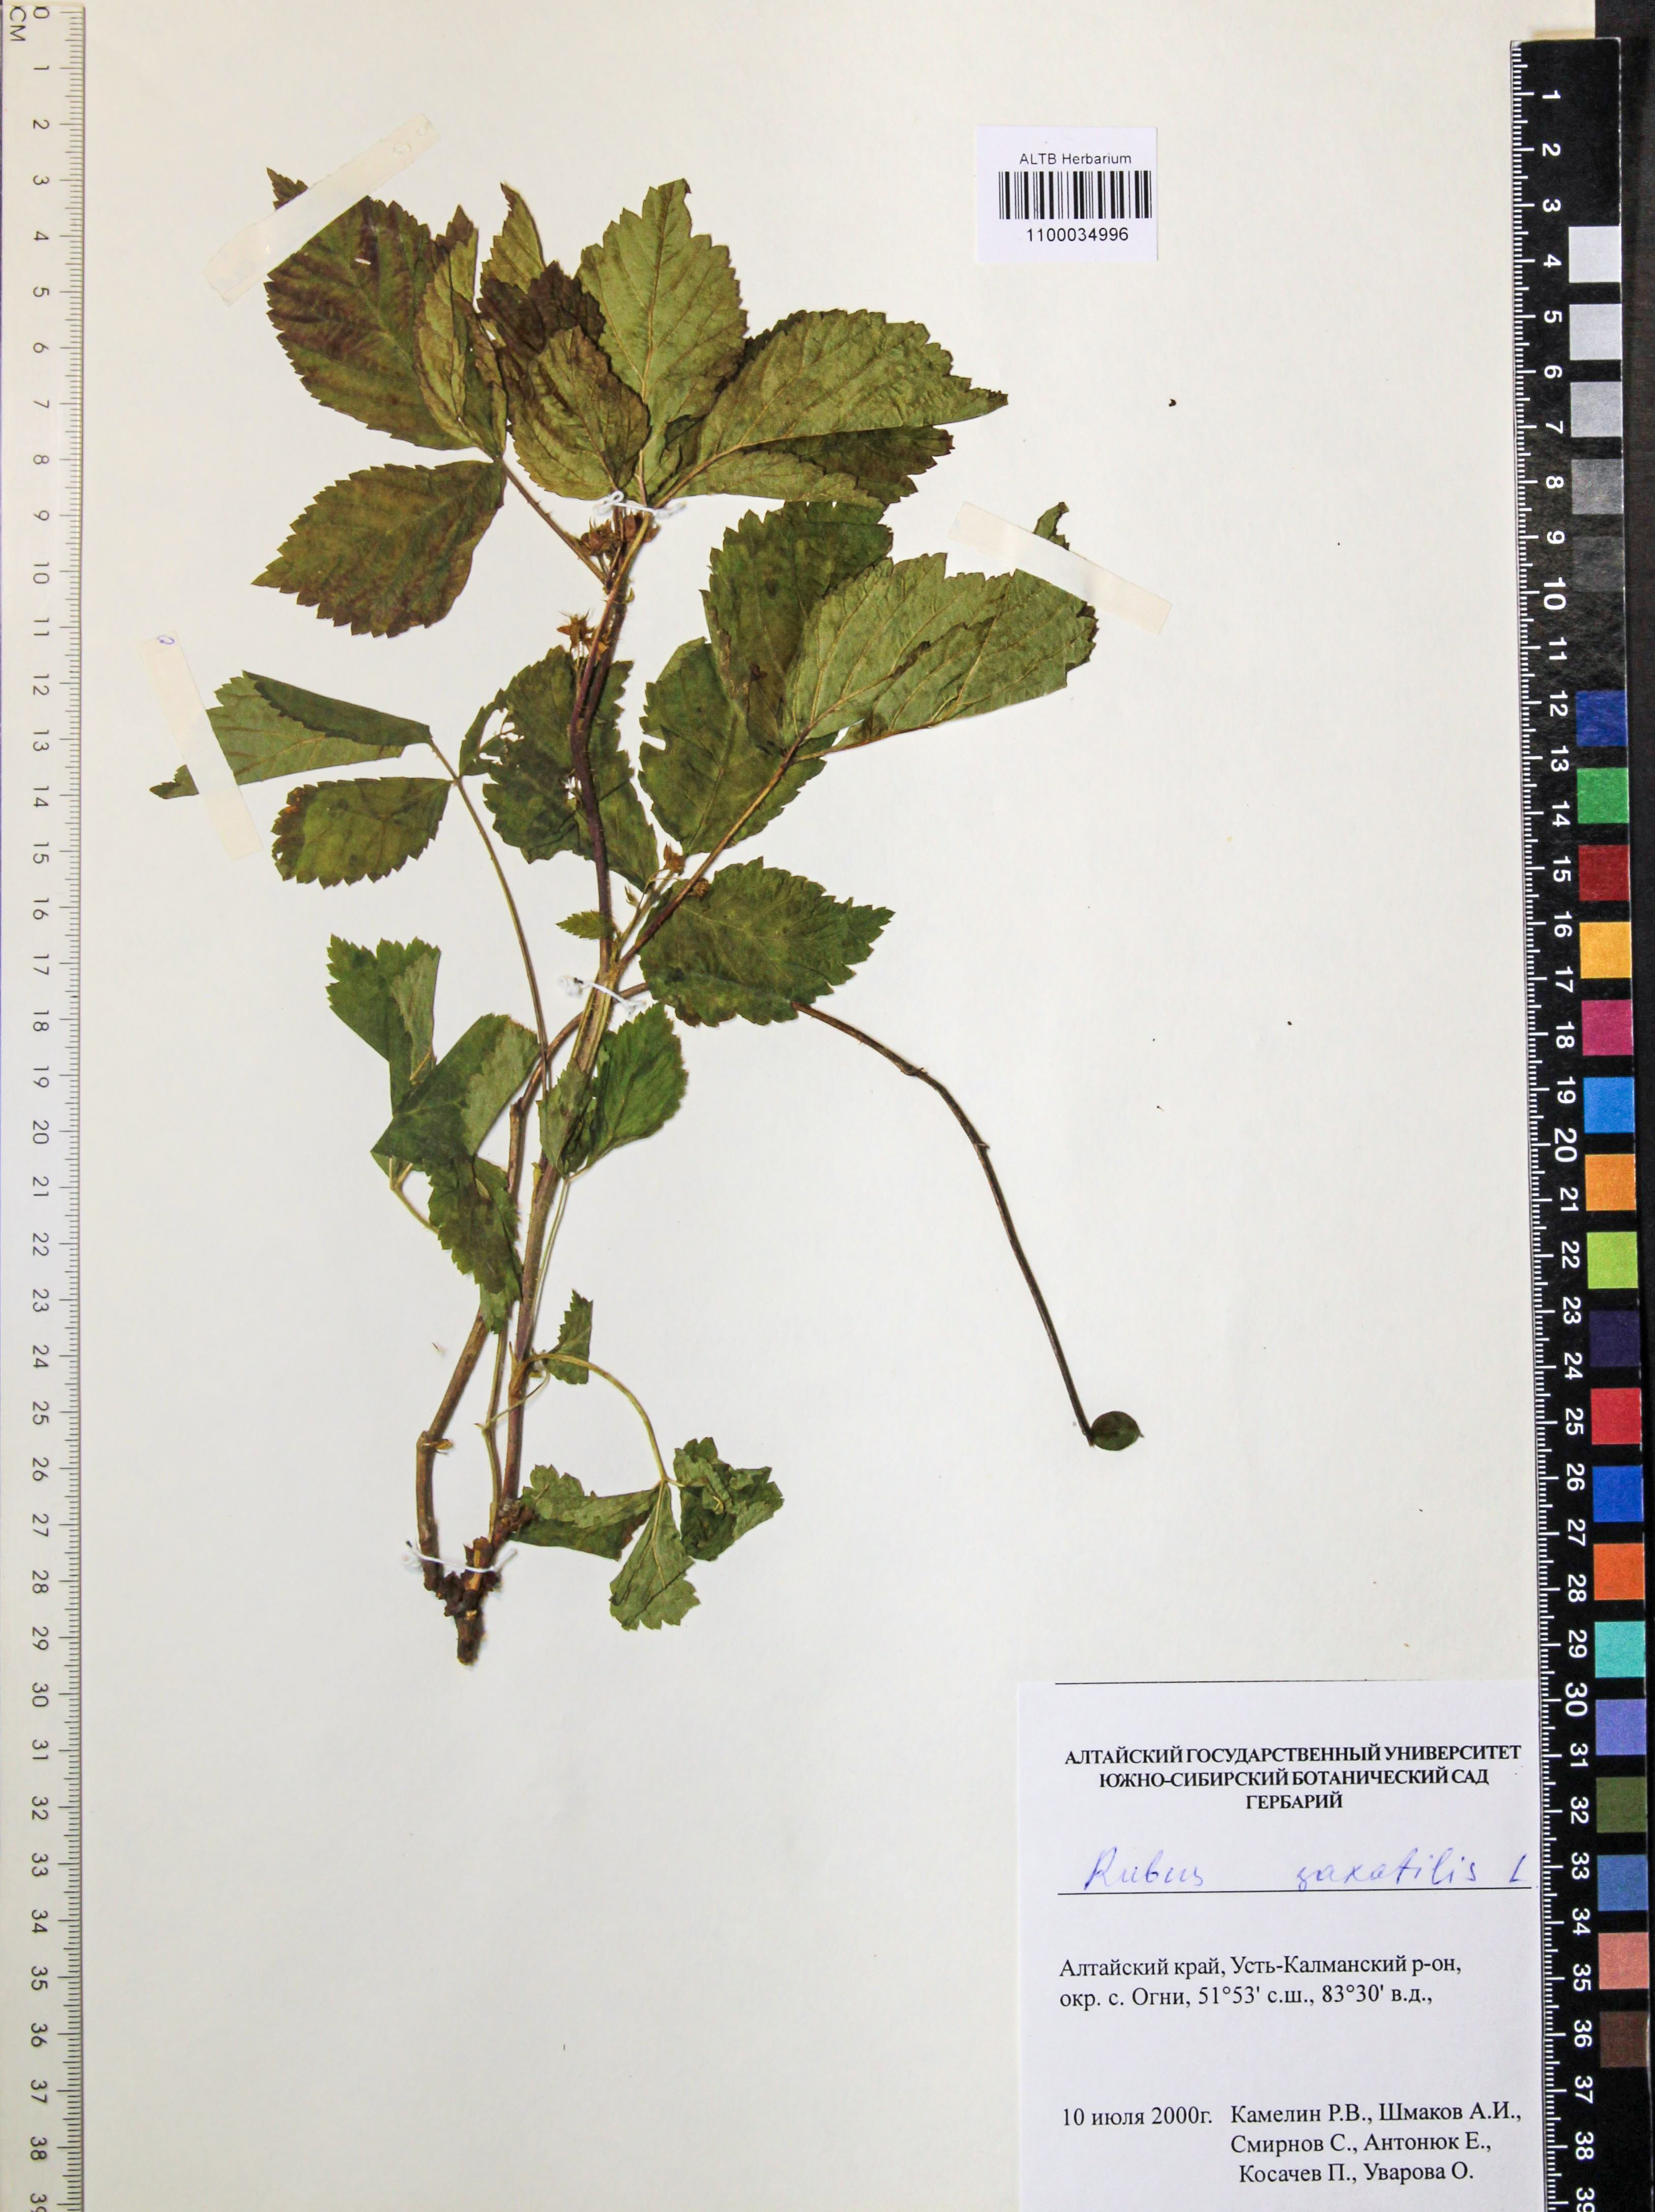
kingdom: Plantae
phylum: Tracheophyta
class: Magnoliopsida
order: Rosales
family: Rosaceae
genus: Rubus
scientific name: Rubus saxatilis
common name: Stone bramble
